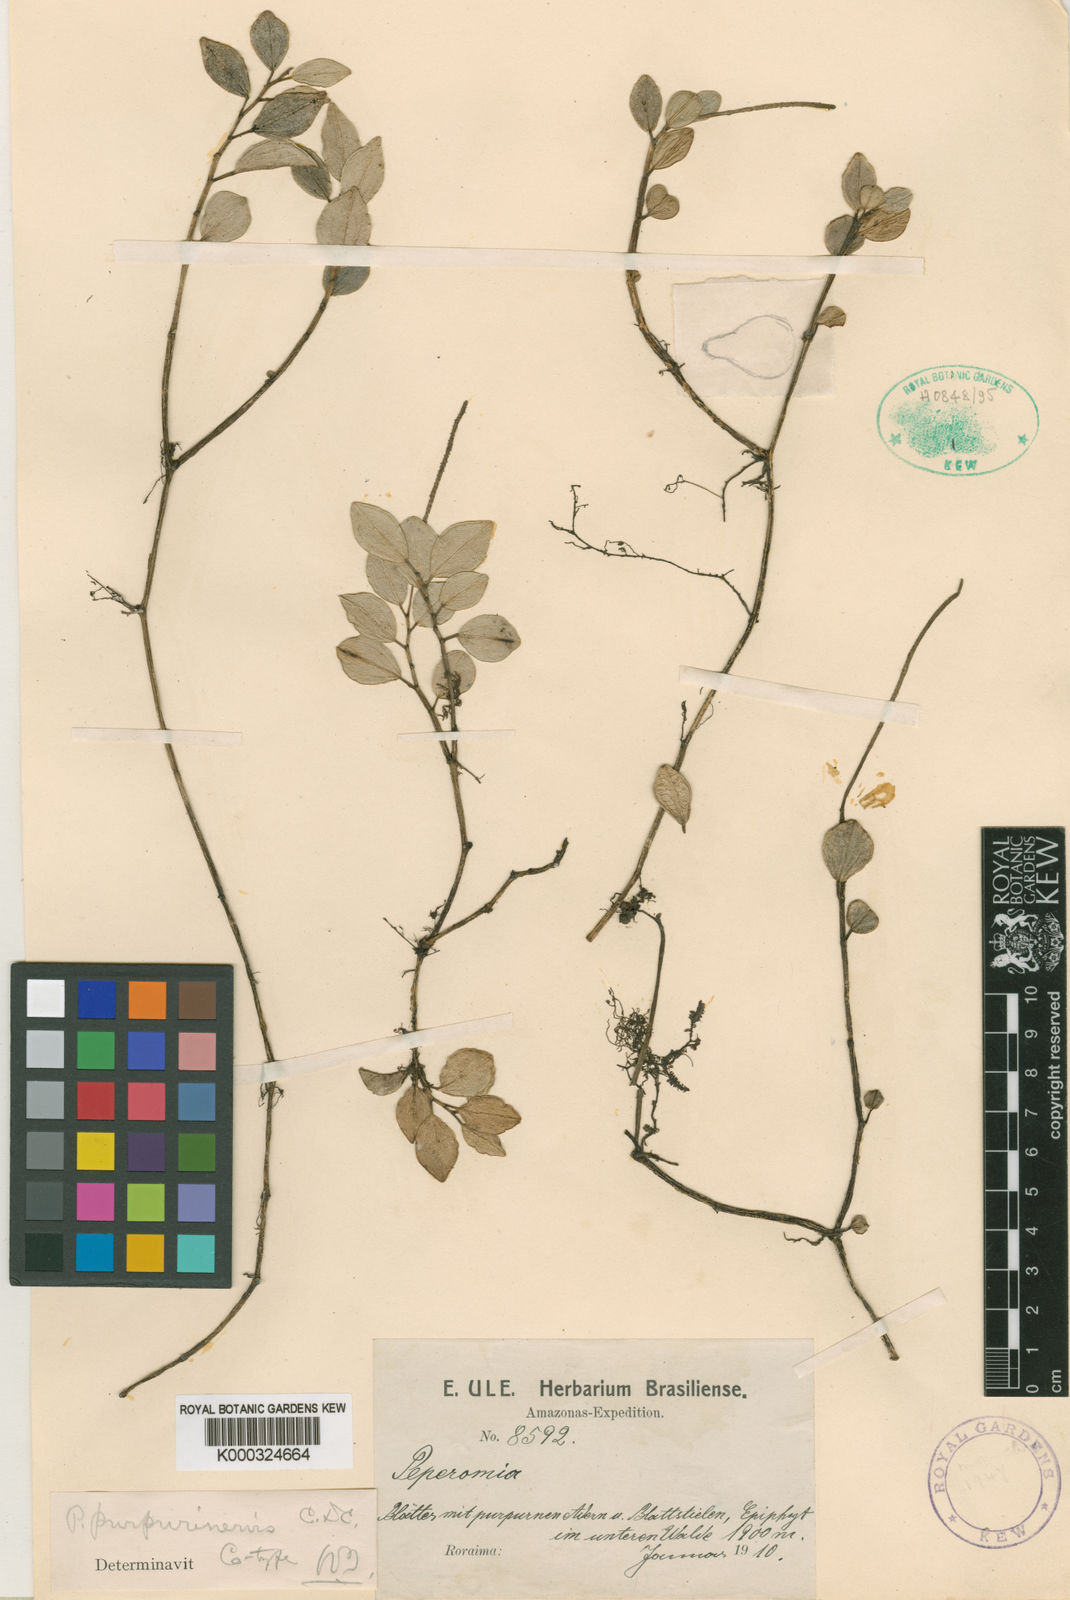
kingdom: Plantae
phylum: Tracheophyta
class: Magnoliopsida
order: Piperales
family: Piperaceae
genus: Peperomia
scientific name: Peperomia purpurinervis
